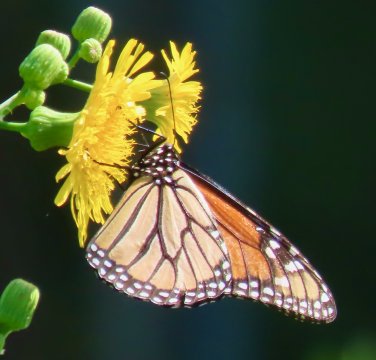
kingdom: Animalia
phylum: Arthropoda
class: Insecta
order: Lepidoptera
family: Nymphalidae
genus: Danaus
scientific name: Danaus plexippus
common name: Monarch
